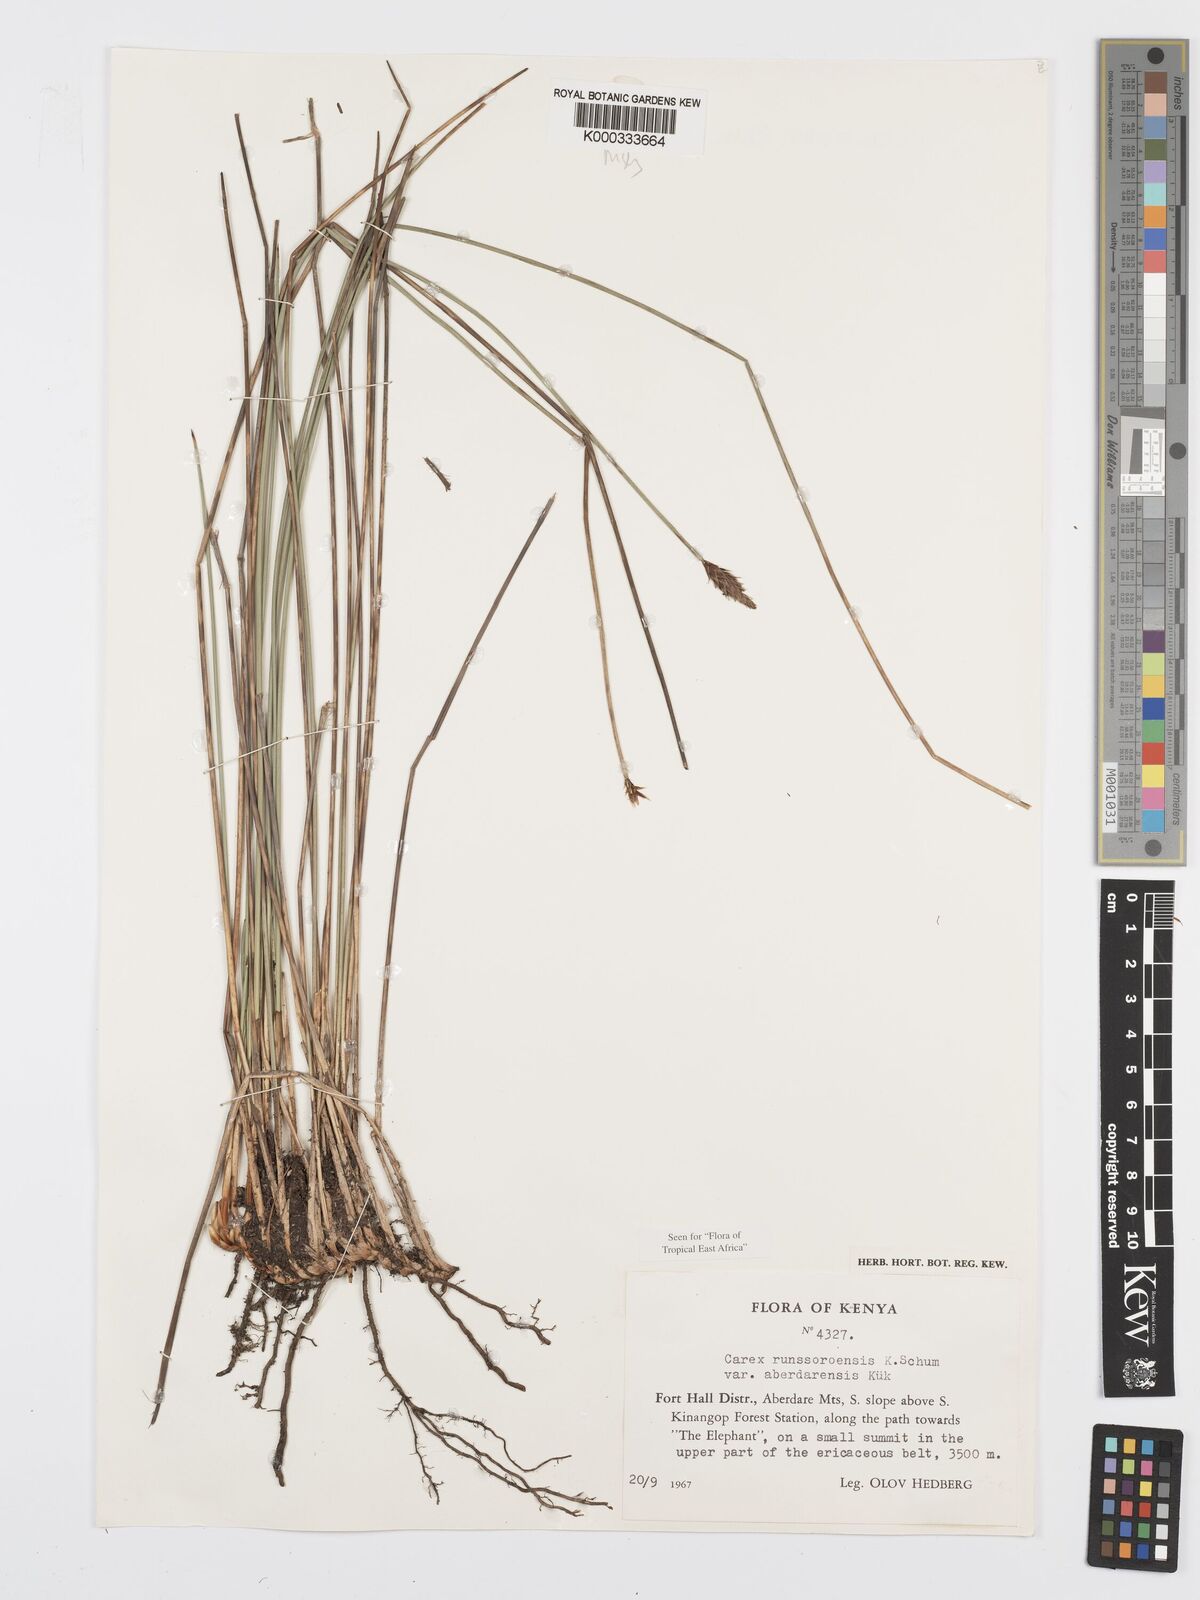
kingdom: Plantae
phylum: Tracheophyta
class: Liliopsida
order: Poales
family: Cyperaceae
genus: Carex
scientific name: Carex runssoroensis
